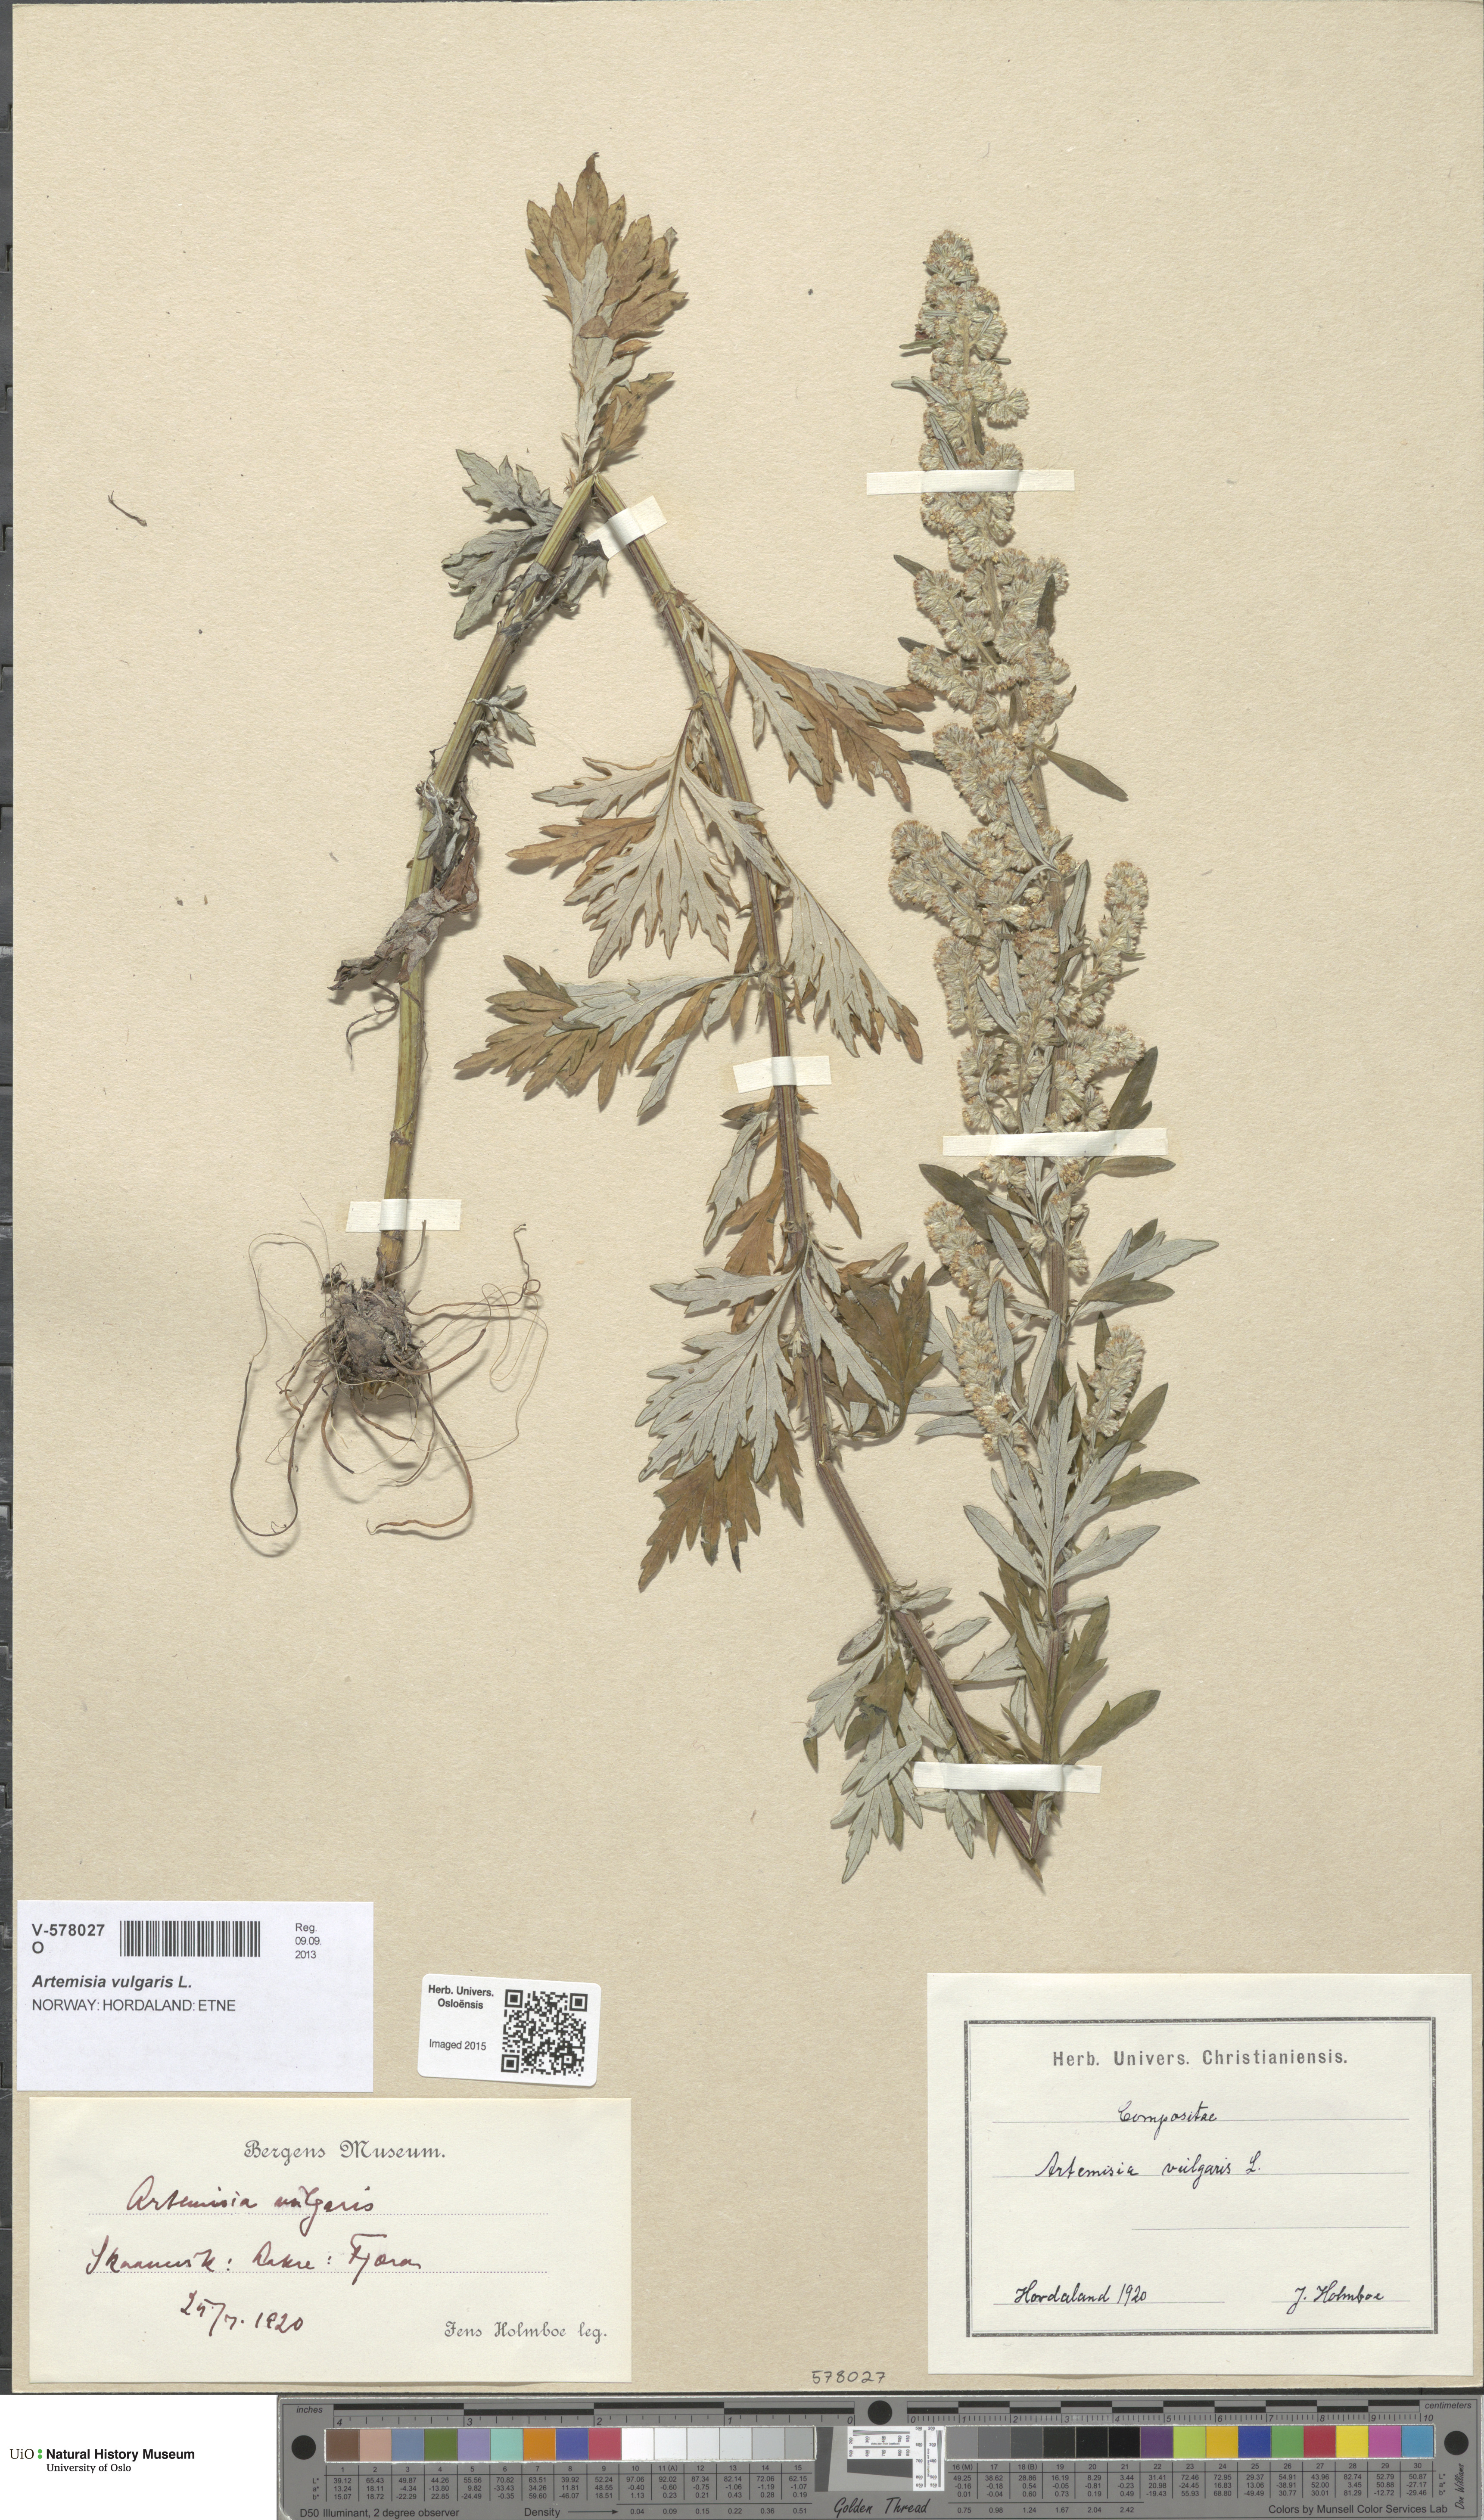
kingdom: Plantae
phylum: Tracheophyta
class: Magnoliopsida
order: Asterales
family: Asteraceae
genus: Artemisia
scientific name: Artemisia vulgaris
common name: Mugwort
